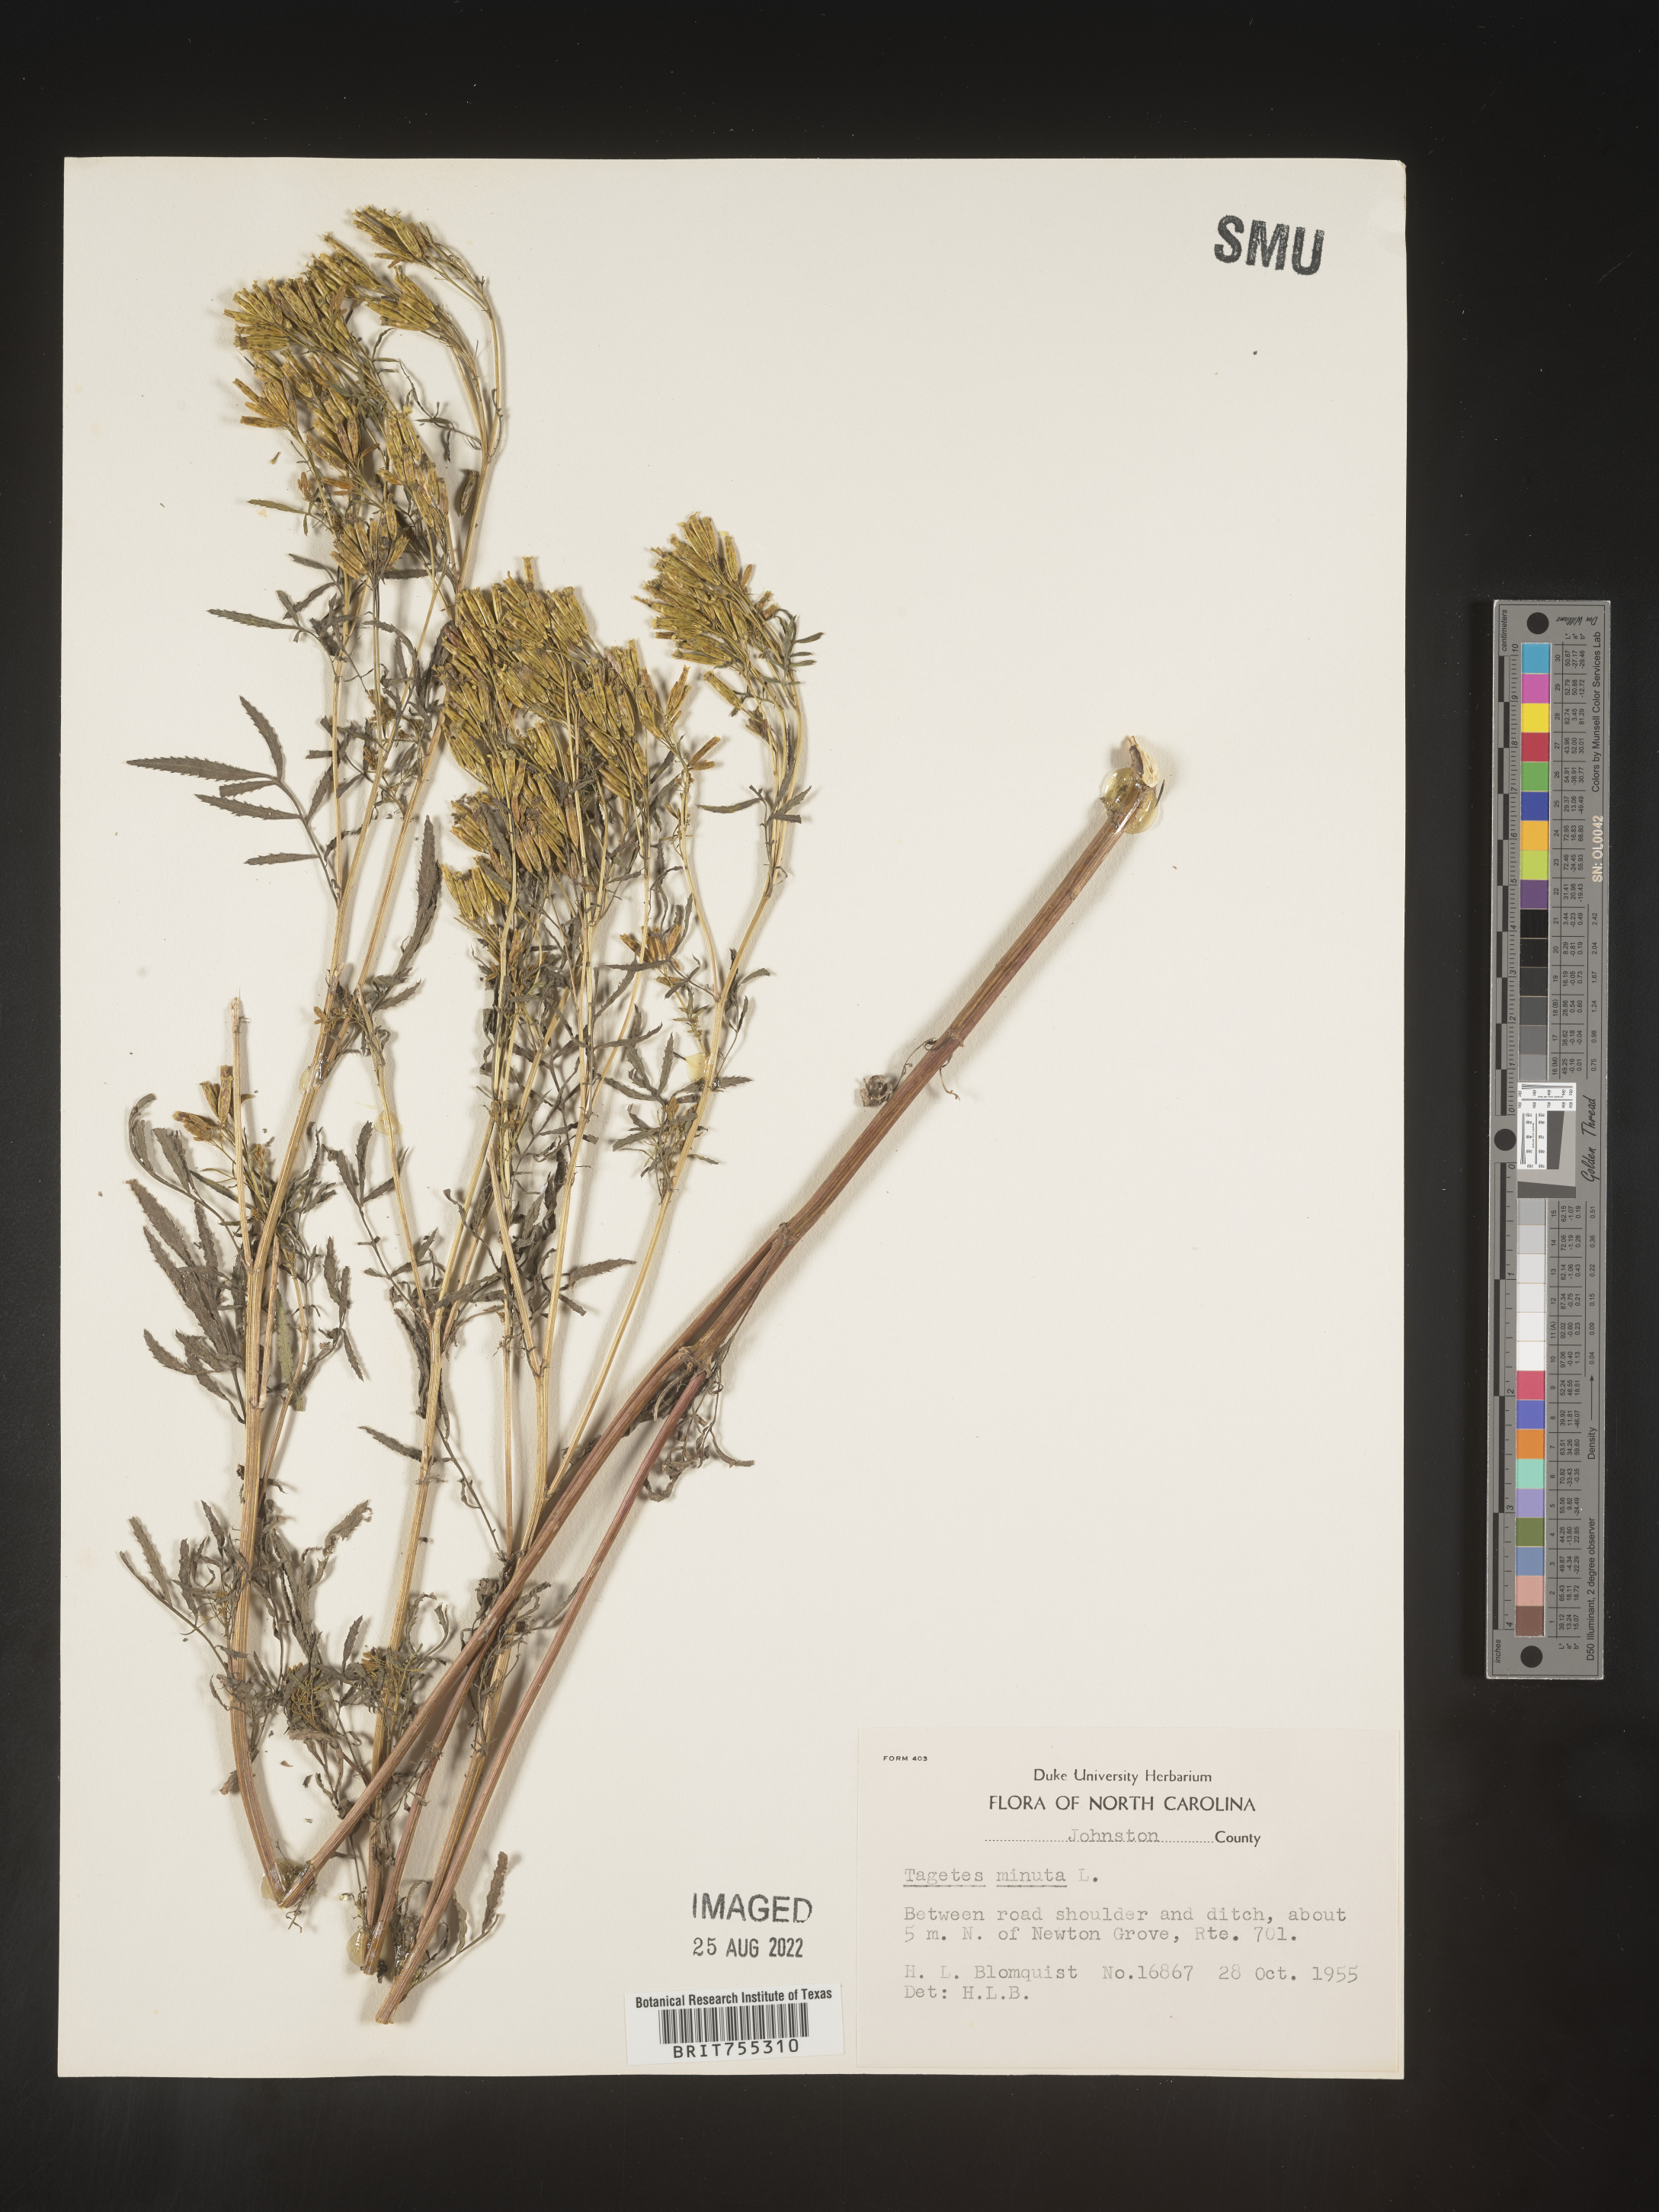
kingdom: Plantae
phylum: Tracheophyta
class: Magnoliopsida
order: Asterales
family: Asteraceae
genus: Tagetes
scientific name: Tagetes
